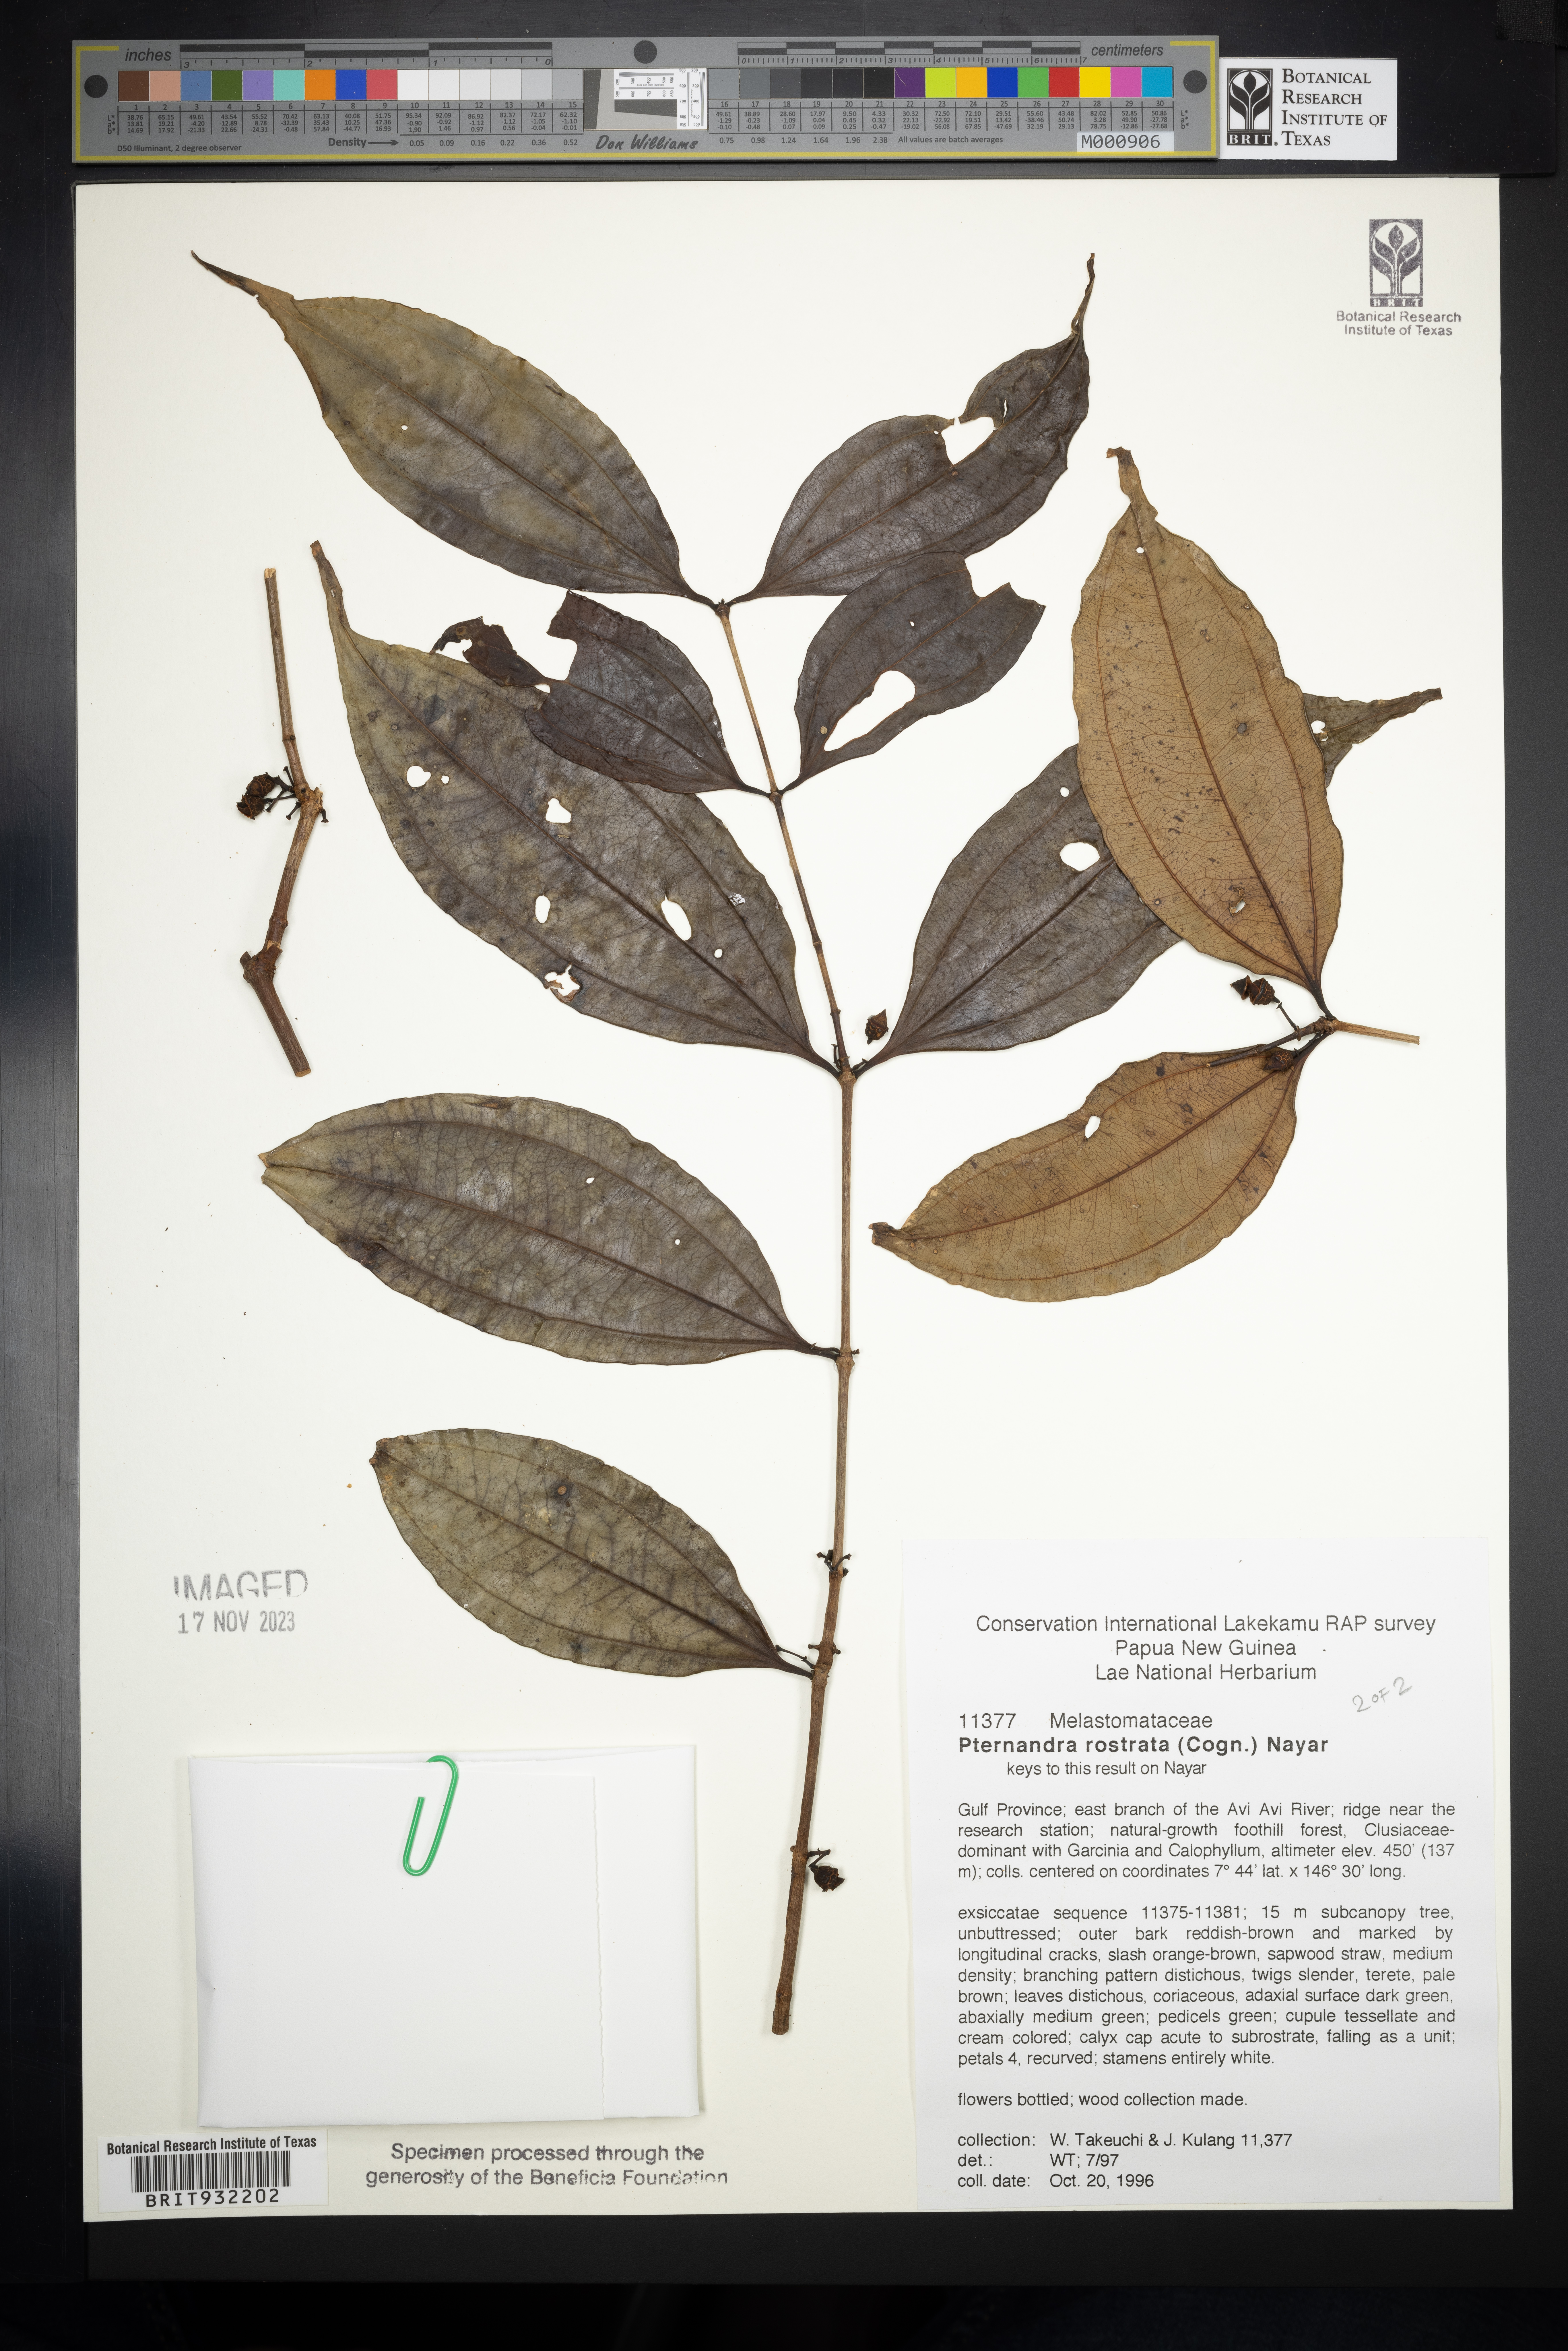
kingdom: Plantae
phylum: Tracheophyta
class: Magnoliopsida
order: Myrtales
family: Melastomataceae
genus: Pternandra
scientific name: Pternandra
